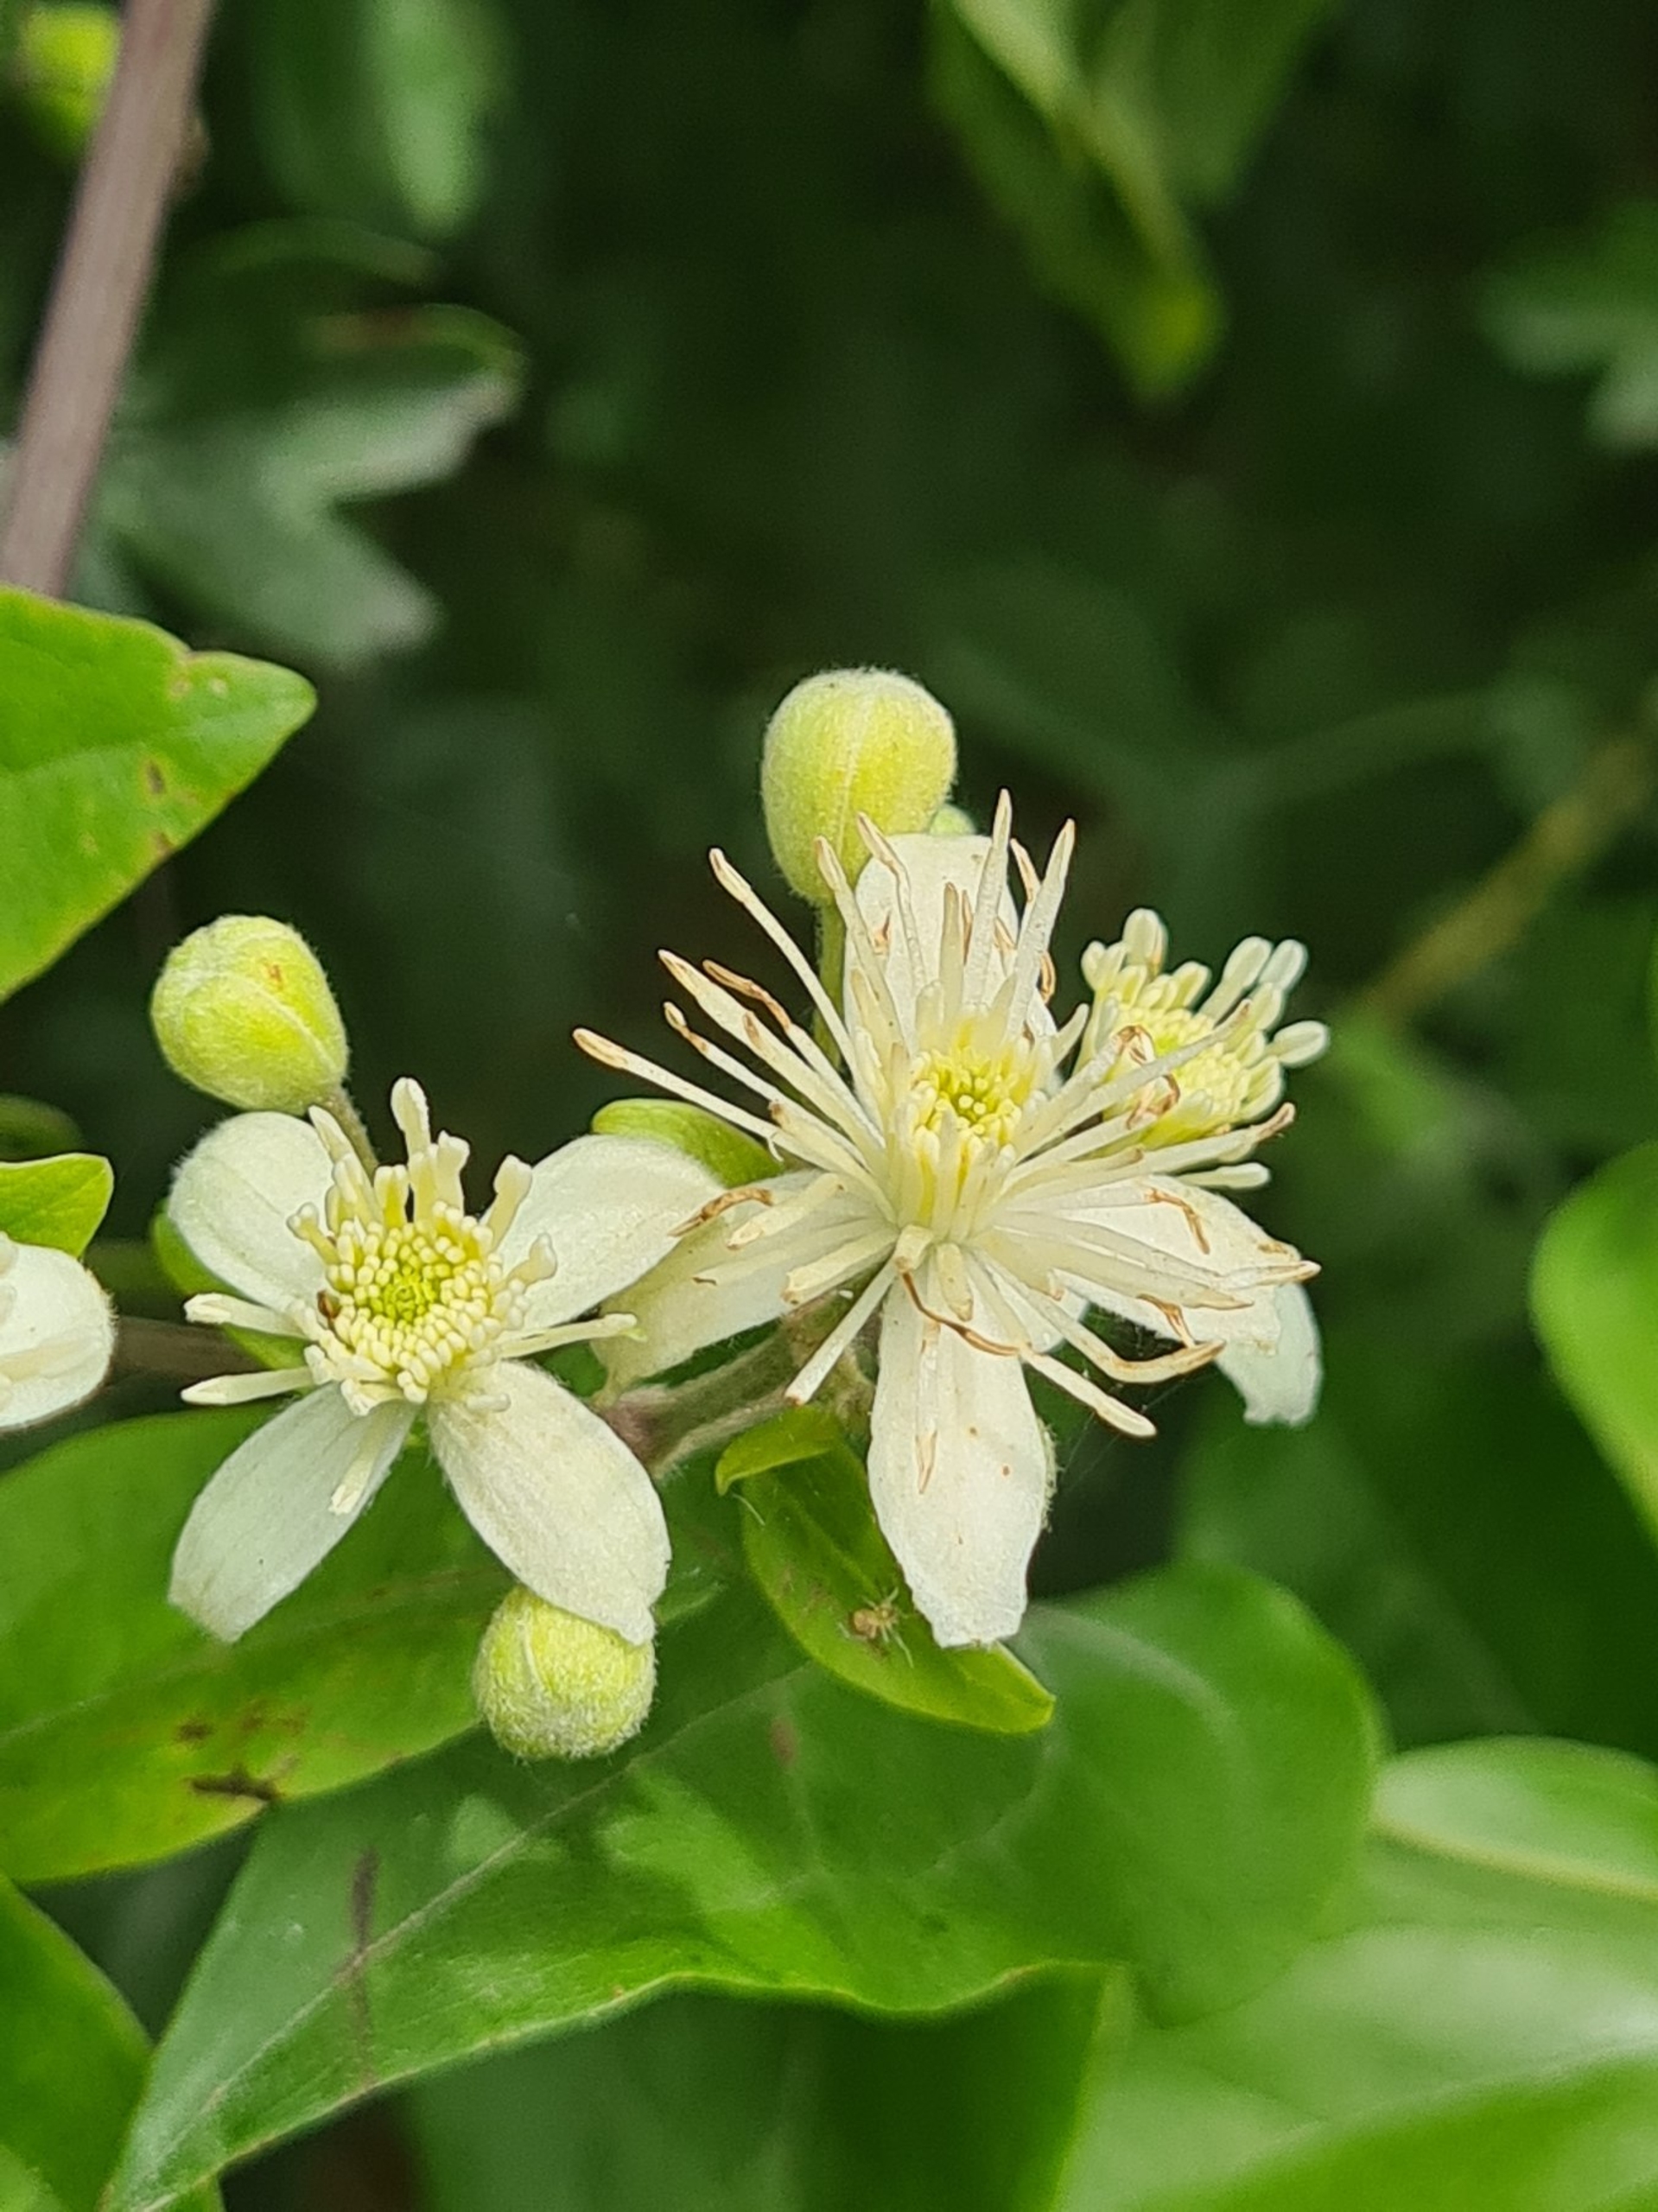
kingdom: Plantae
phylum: Tracheophyta
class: Magnoliopsida
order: Ranunculales
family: Ranunculaceae
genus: Clematis
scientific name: Clematis vitalba
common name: Skovranke
